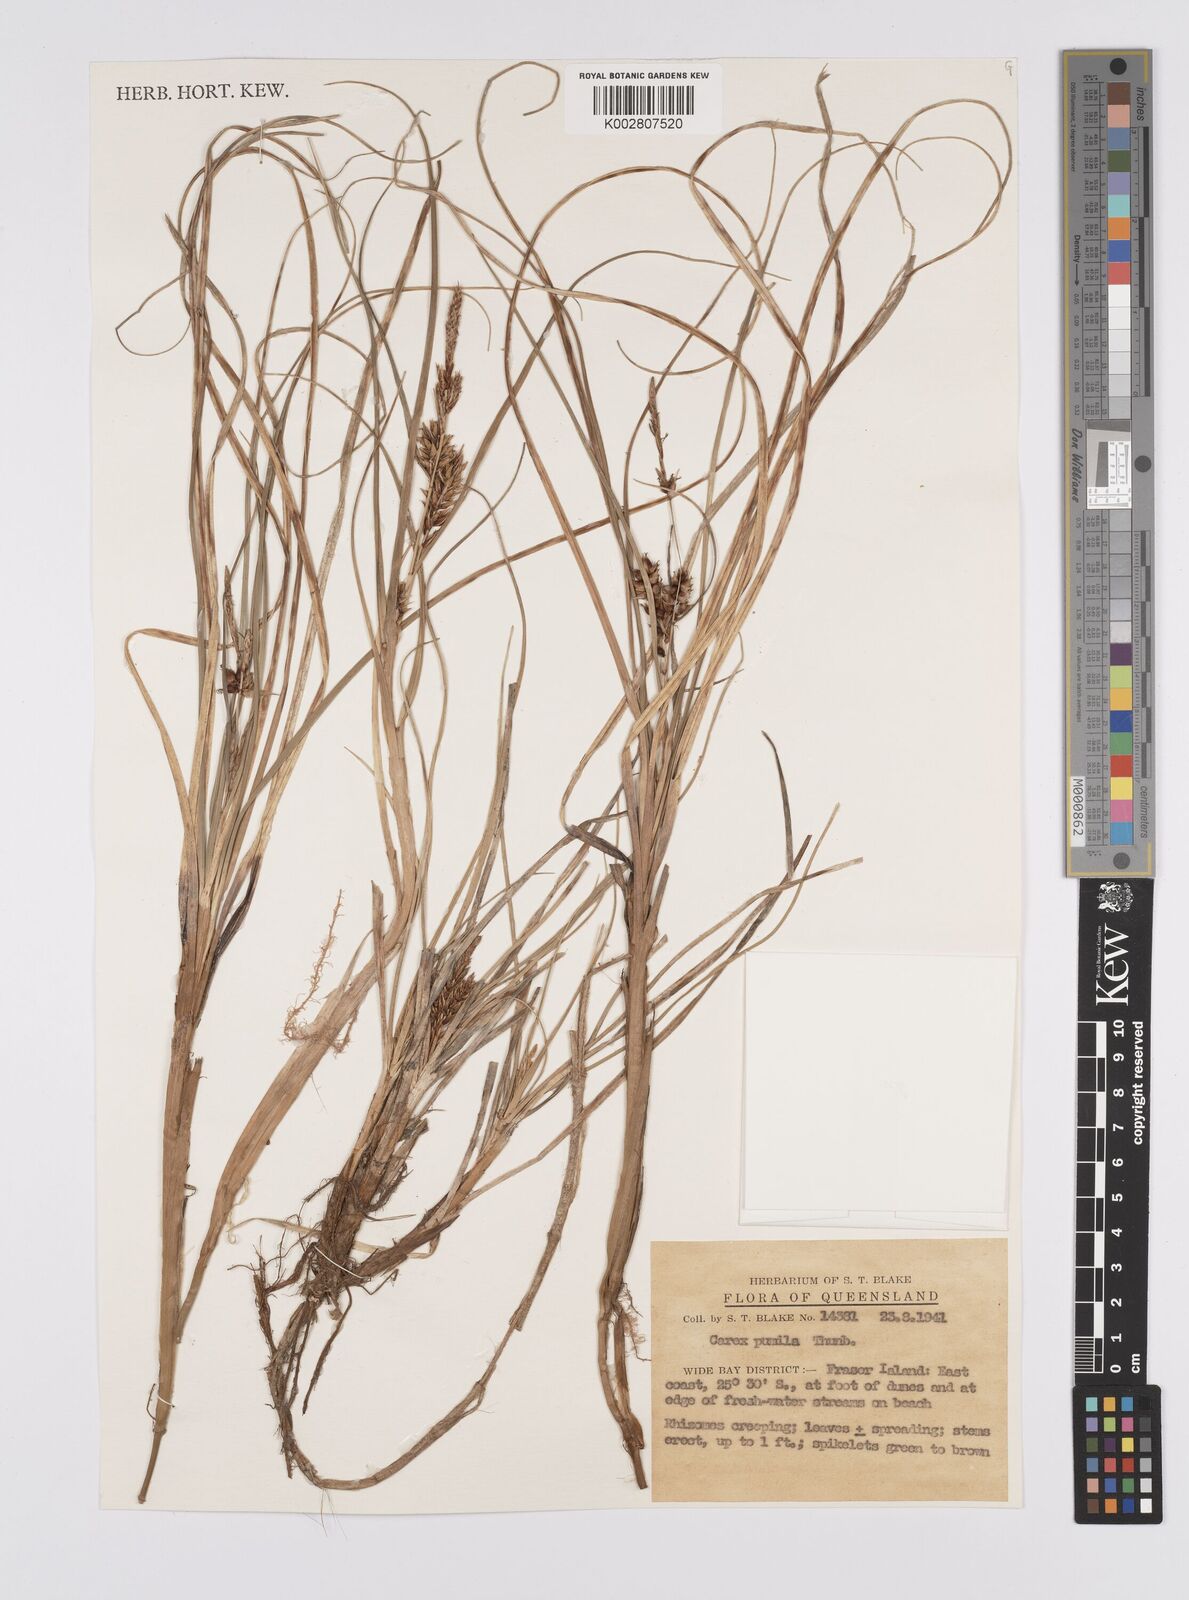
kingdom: Plantae
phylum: Tracheophyta
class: Liliopsida
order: Poales
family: Cyperaceae
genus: Carex
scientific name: Carex pumila
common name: Dwarf sedge
